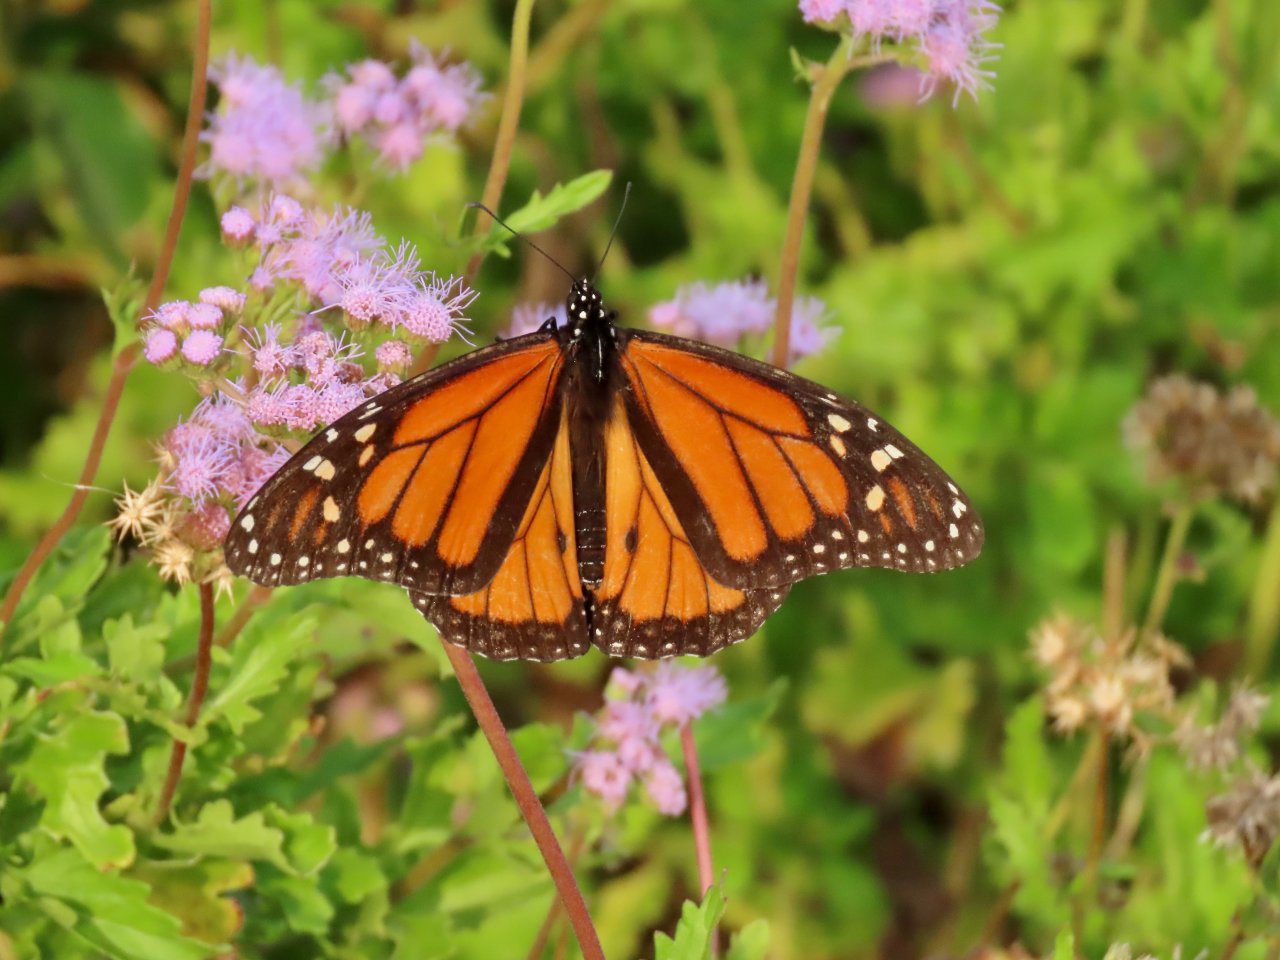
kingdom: Animalia
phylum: Arthropoda
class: Insecta
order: Lepidoptera
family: Nymphalidae
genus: Danaus
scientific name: Danaus plexippus
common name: Monarch
